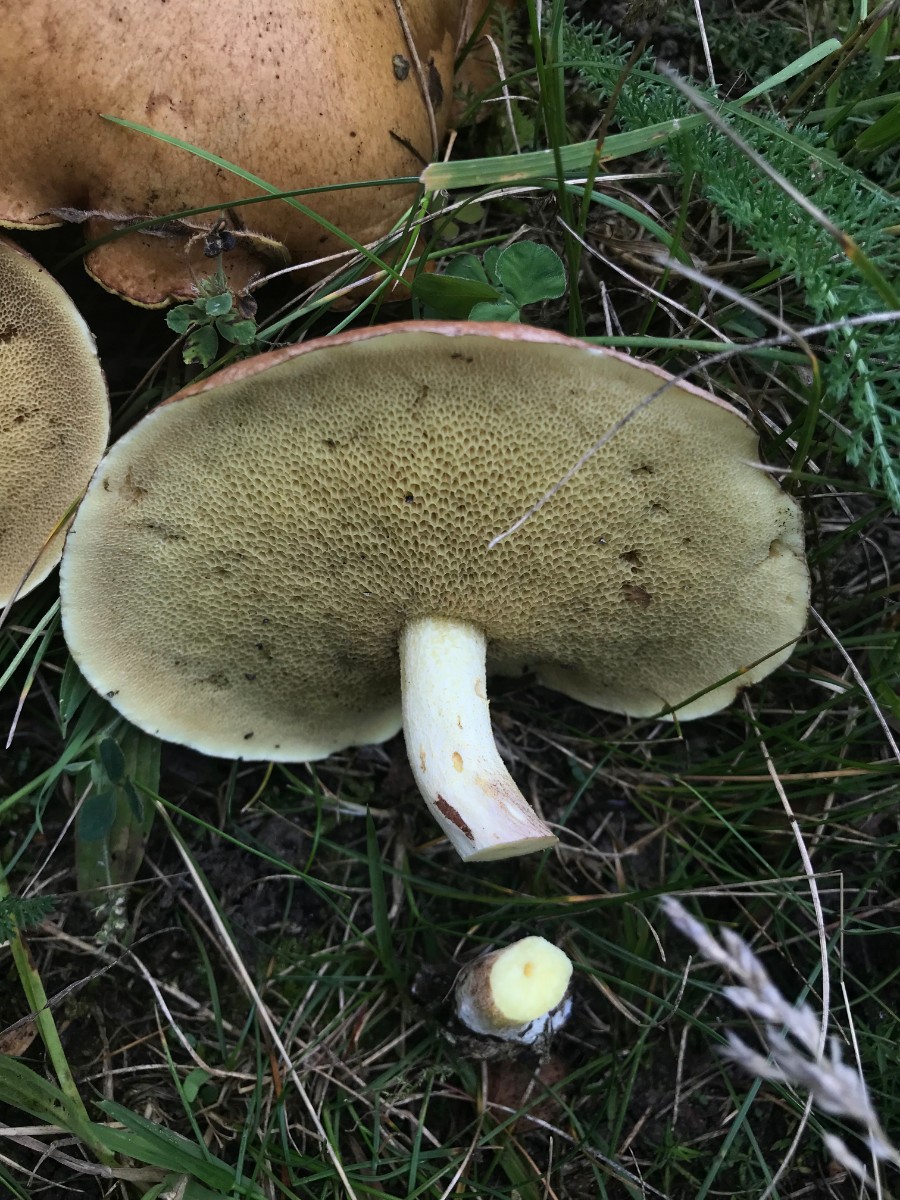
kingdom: Fungi
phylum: Basidiomycota
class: Agaricomycetes
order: Boletales
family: Suillaceae
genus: Suillus
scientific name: Suillus granulatus
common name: kornet slimrørhat
